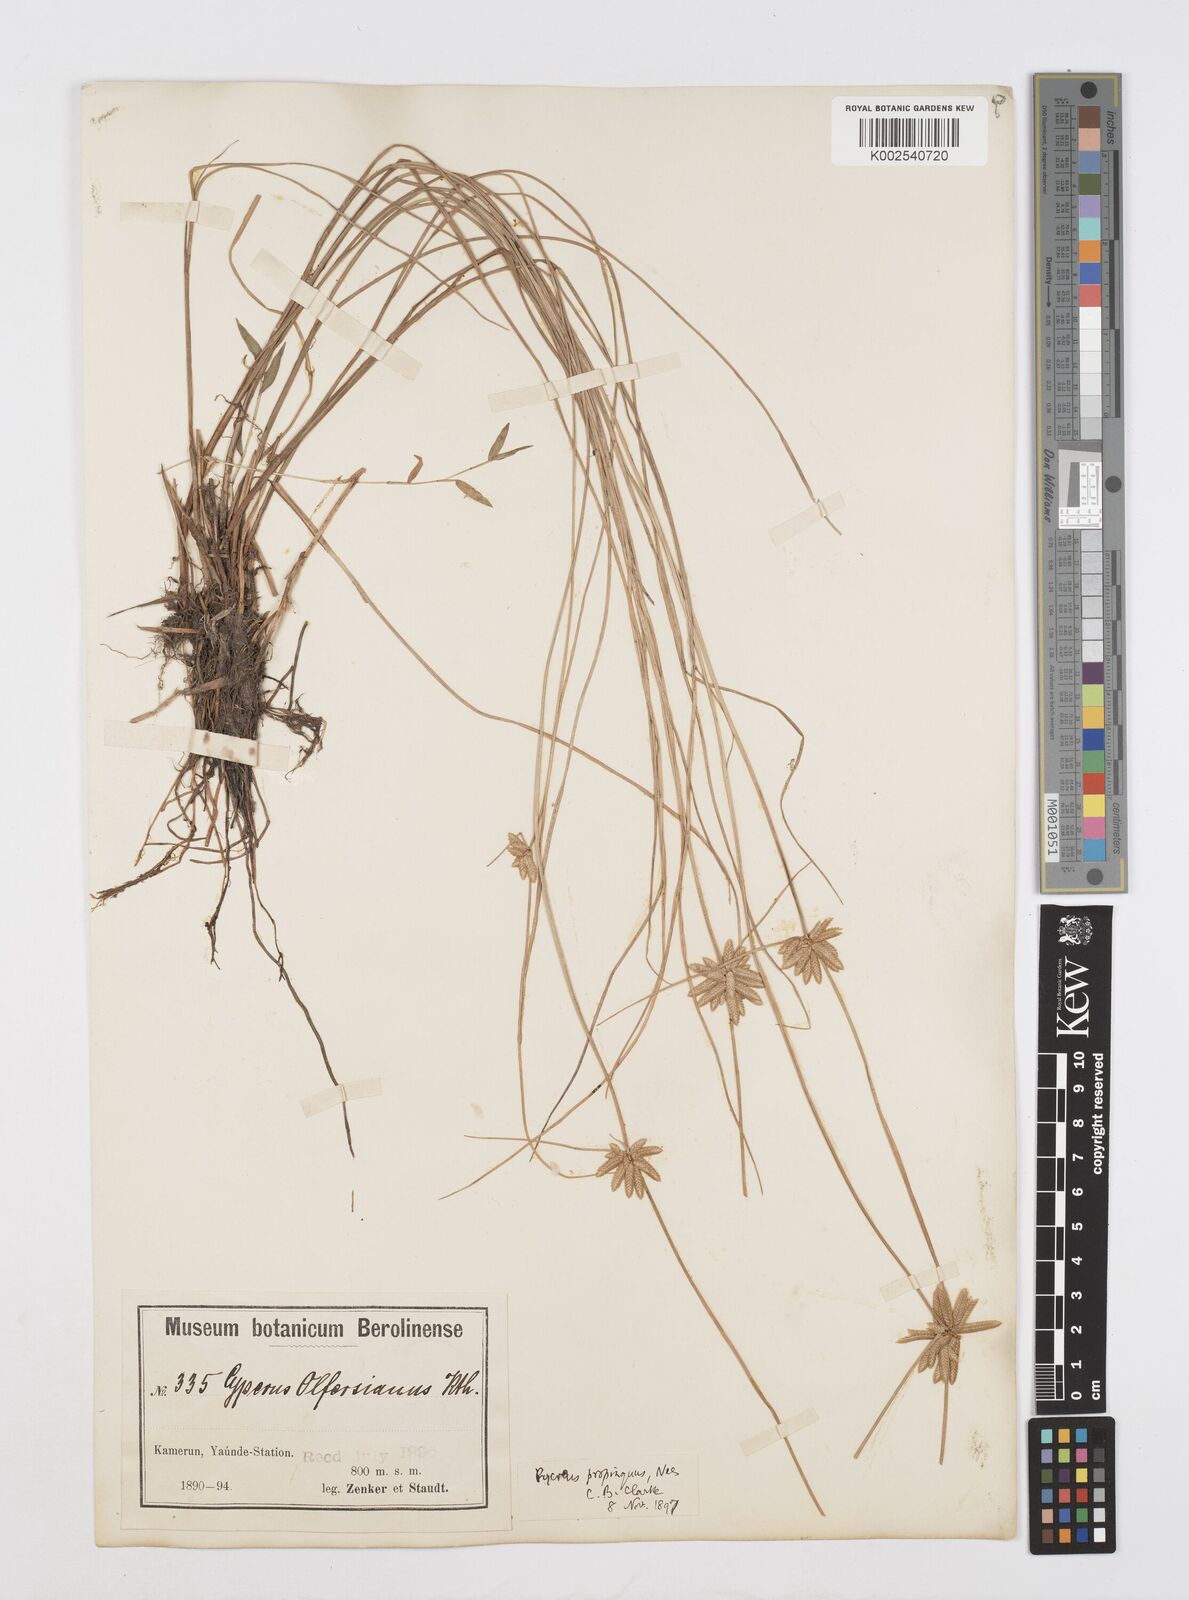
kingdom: Plantae
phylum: Tracheophyta
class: Liliopsida
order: Poales
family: Cyperaceae
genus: Cyperus
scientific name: Cyperus
